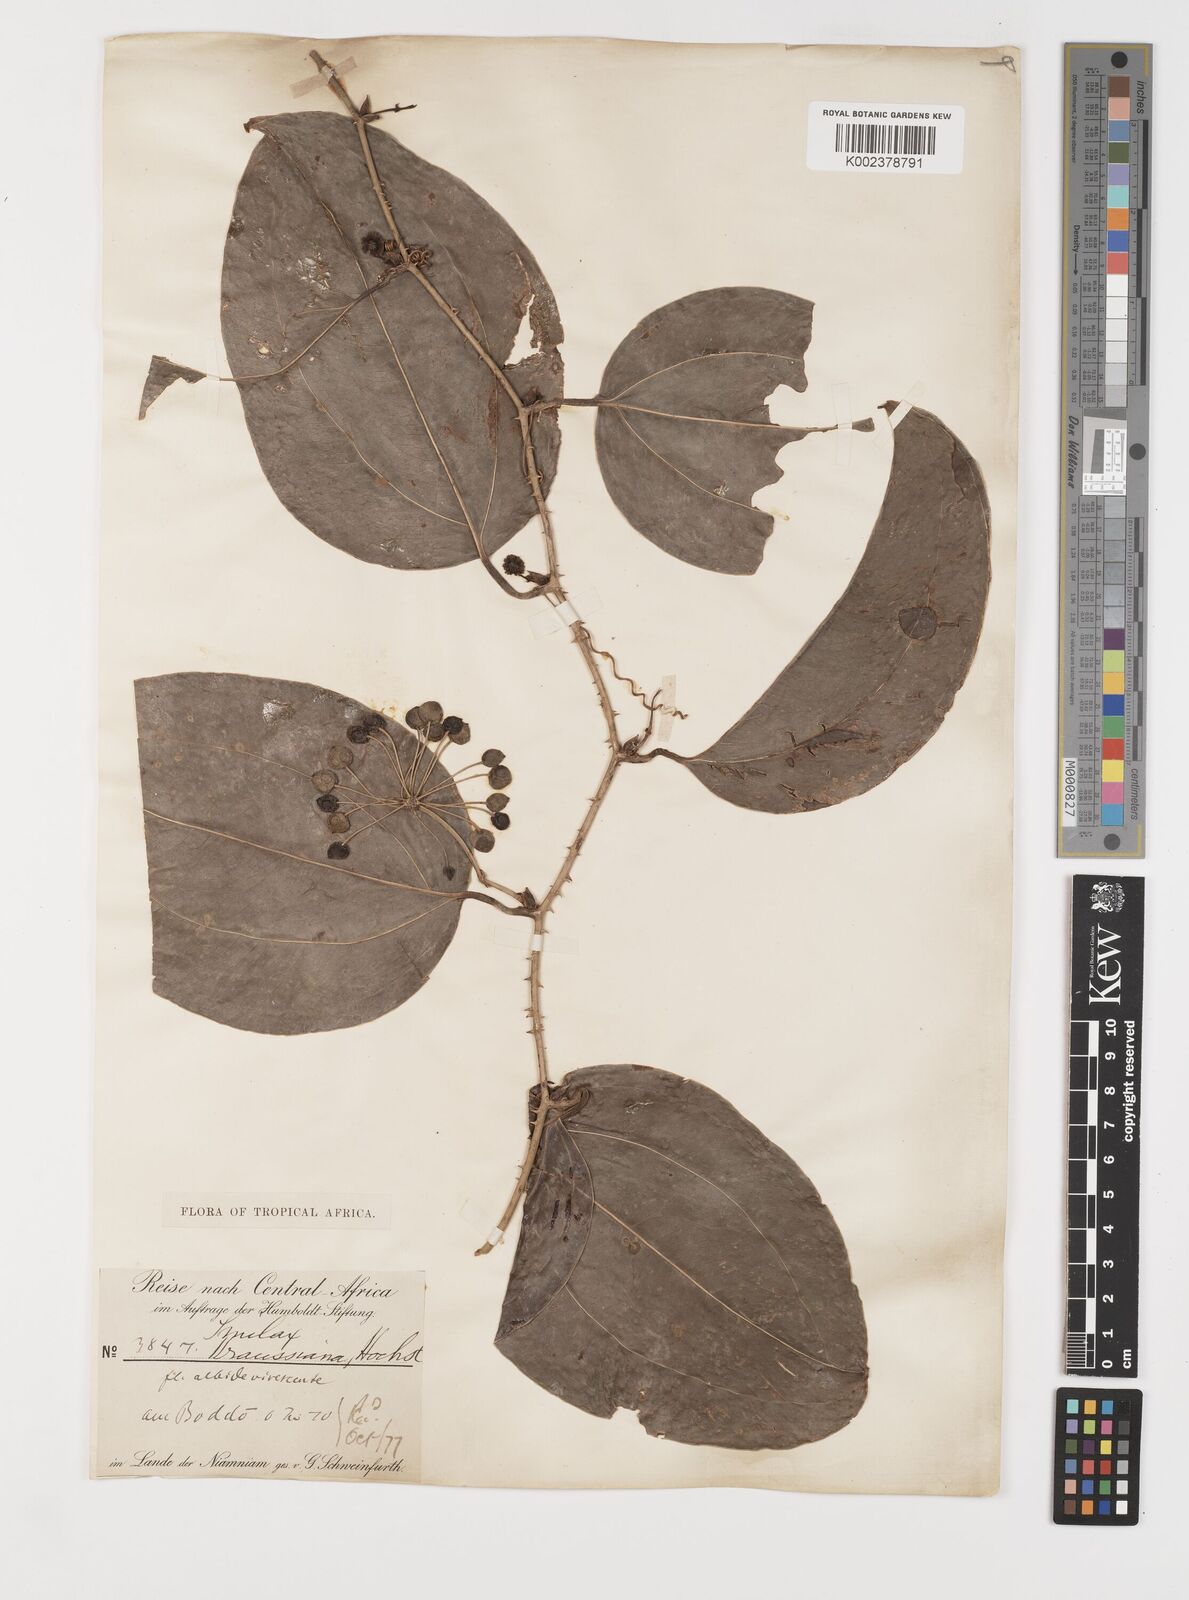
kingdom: Plantae
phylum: Tracheophyta
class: Liliopsida
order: Liliales
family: Smilacaceae
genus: Smilax
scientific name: Smilax anceps
